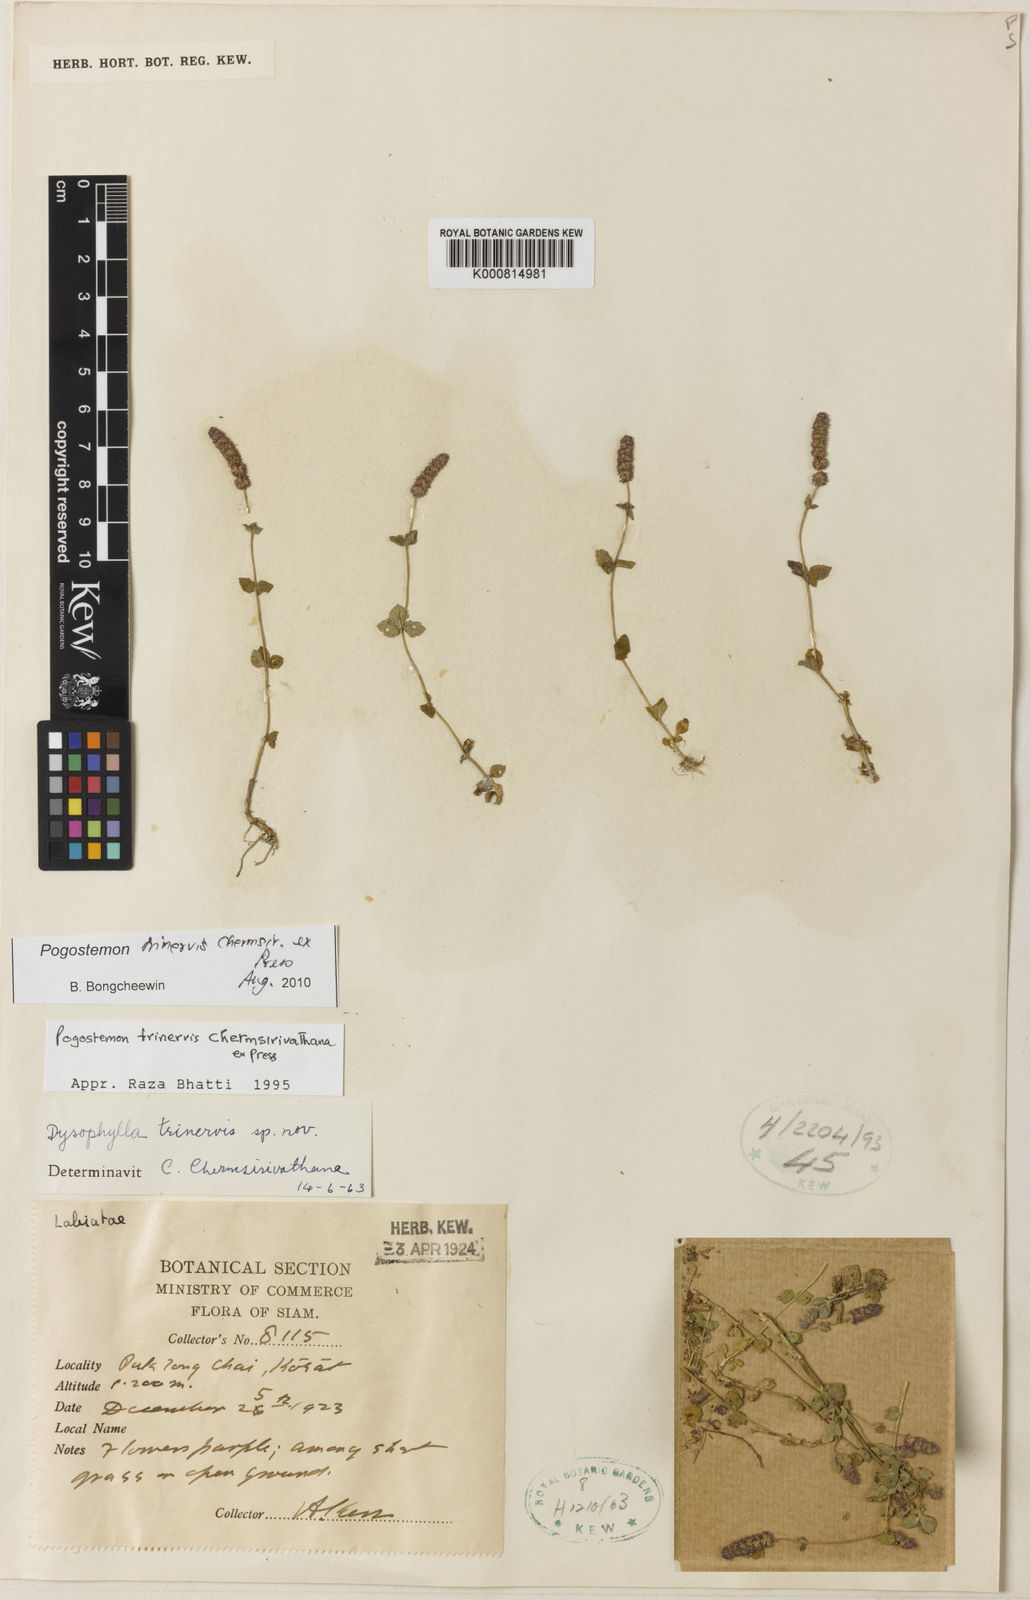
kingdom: Plantae
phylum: Tracheophyta
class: Magnoliopsida
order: Lamiales
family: Lamiaceae
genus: Pogostemon
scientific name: Pogostemon trinervis
